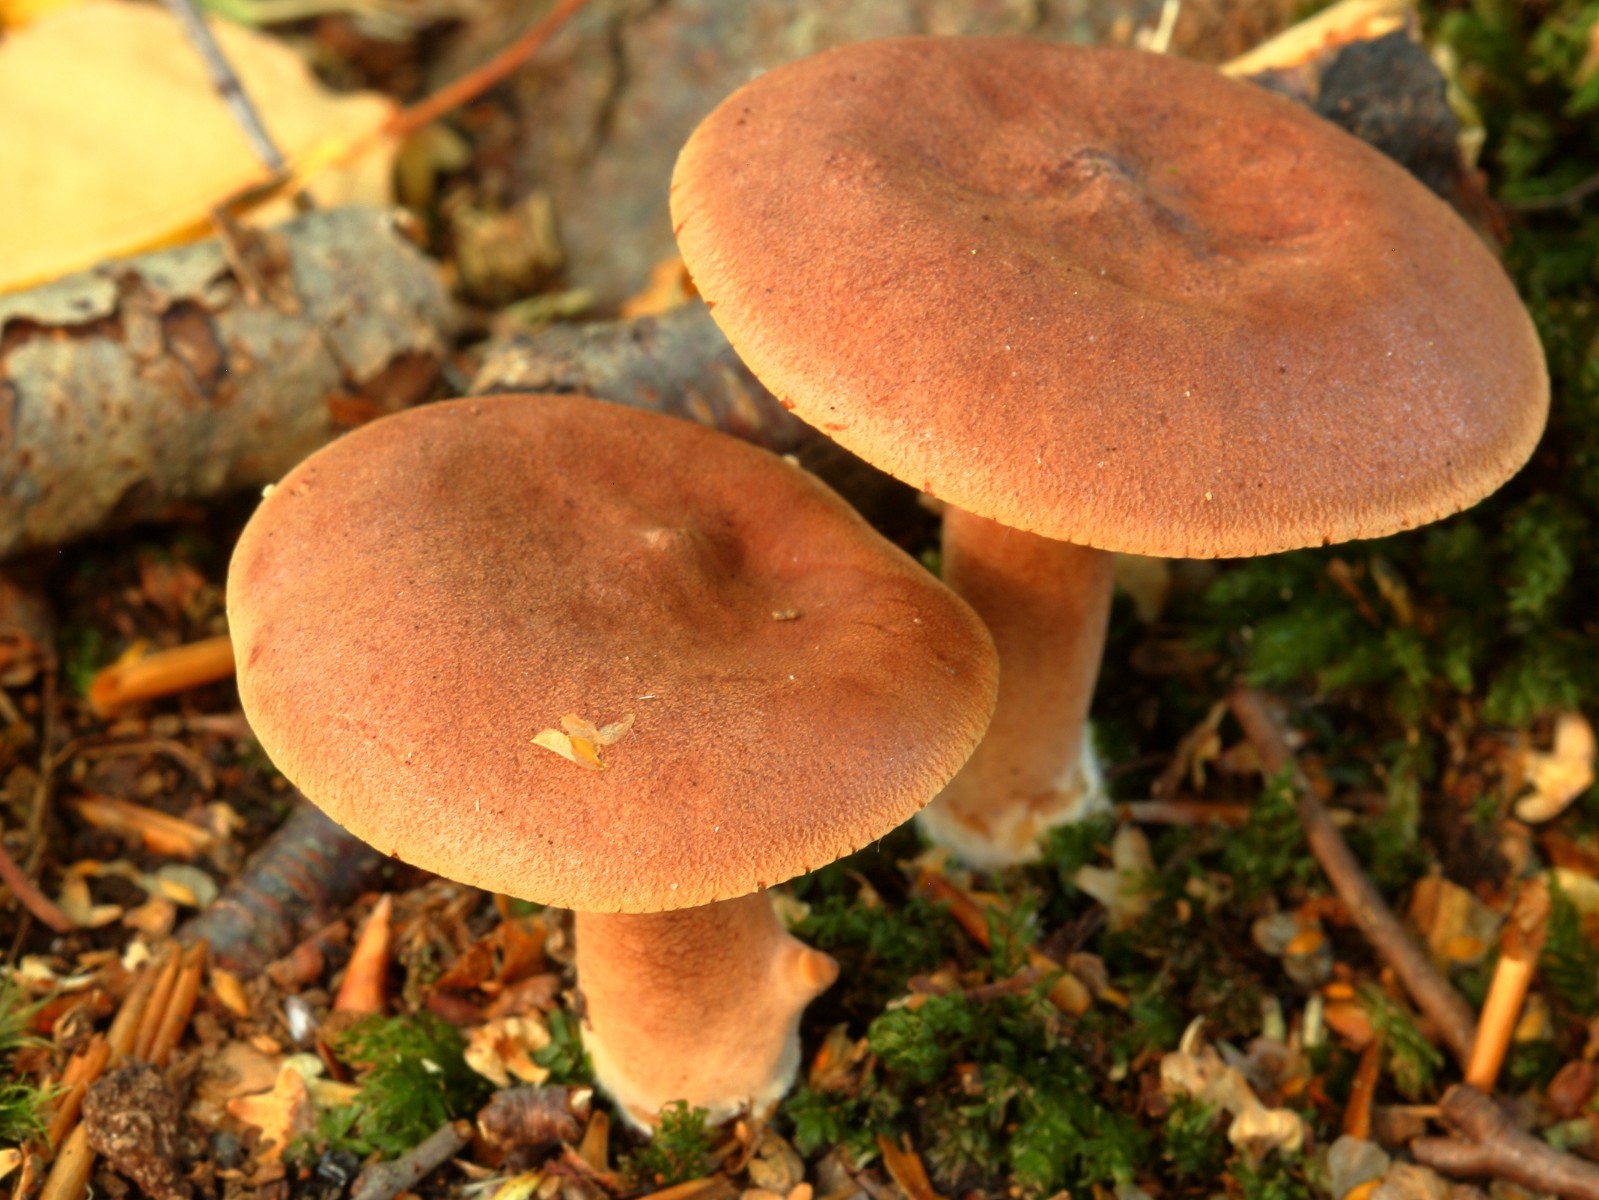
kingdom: Fungi
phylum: Basidiomycota
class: Agaricomycetes
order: Russulales
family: Russulaceae
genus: Lactarius
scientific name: Lactarius
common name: mælkehat
